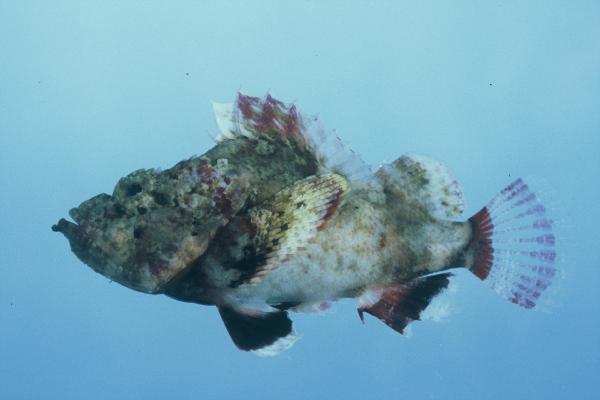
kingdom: Animalia
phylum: Chordata
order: Scorpaeniformes
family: Scorpaenidae
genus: Scorpaenopsis
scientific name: Scorpaenopsis diabolus
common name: False stonefish
